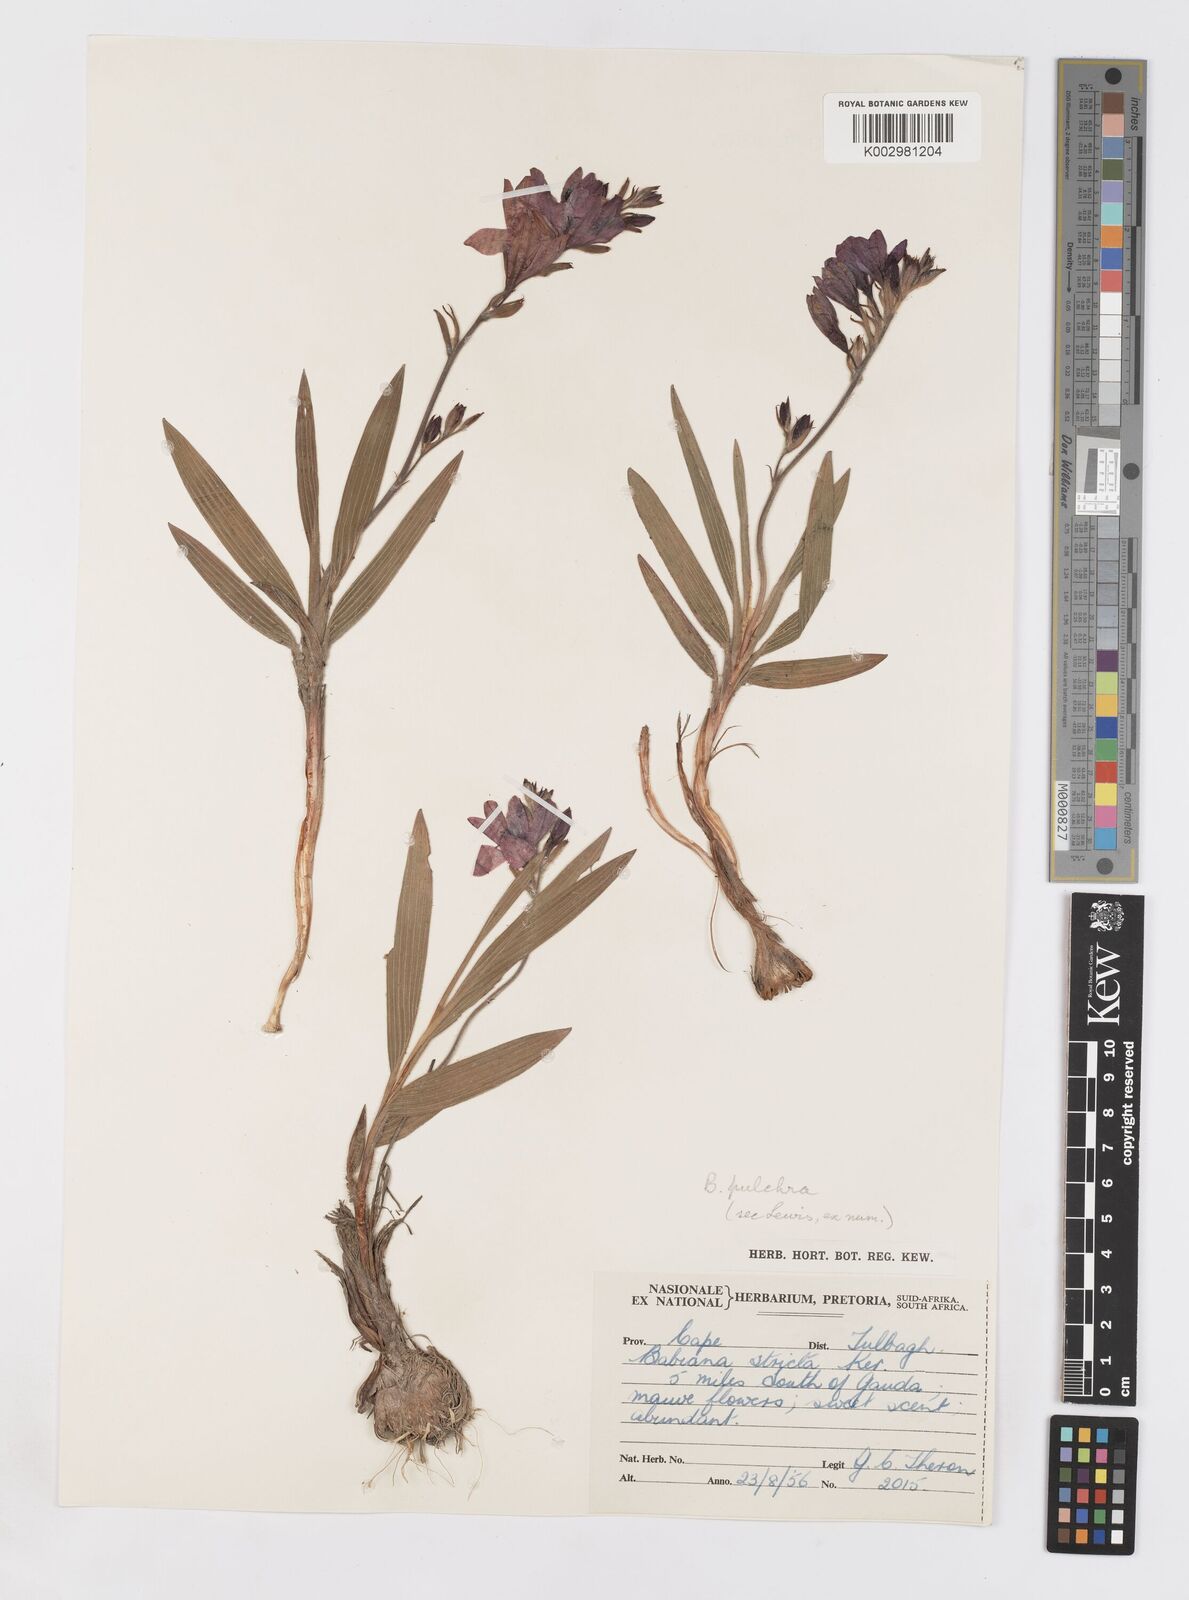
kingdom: Plantae
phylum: Tracheophyta
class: Liliopsida
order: Asparagales
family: Iridaceae
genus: Babiana
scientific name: Babiana angustifolia
